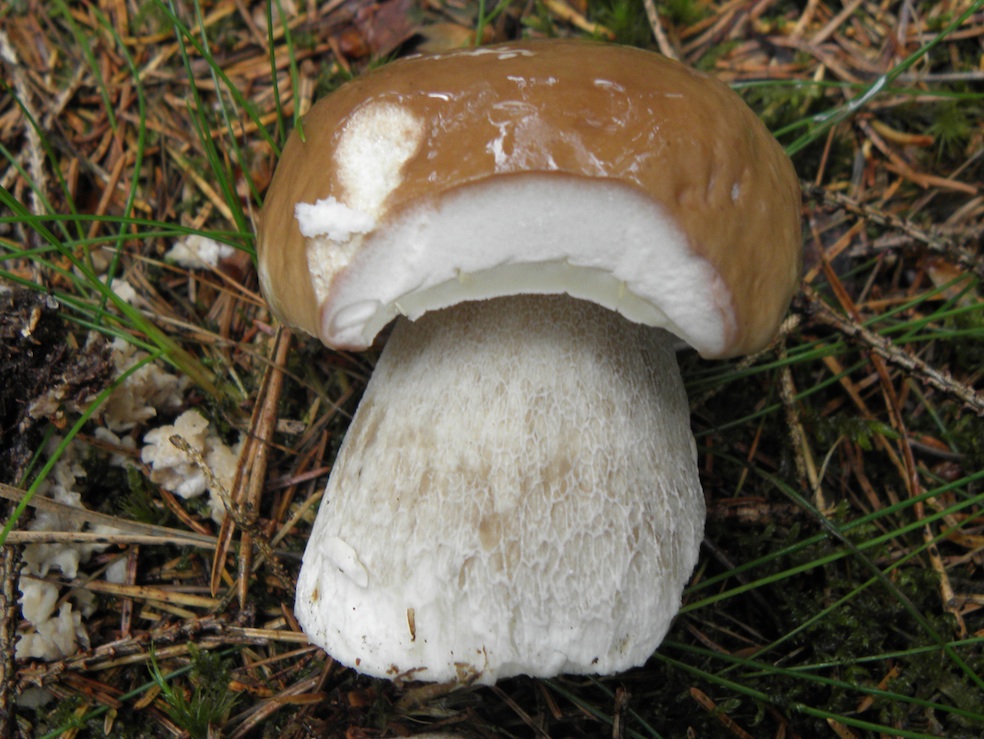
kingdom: Fungi
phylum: Basidiomycota
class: Agaricomycetes
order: Boletales
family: Boletaceae
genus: Boletus
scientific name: Boletus edulis
